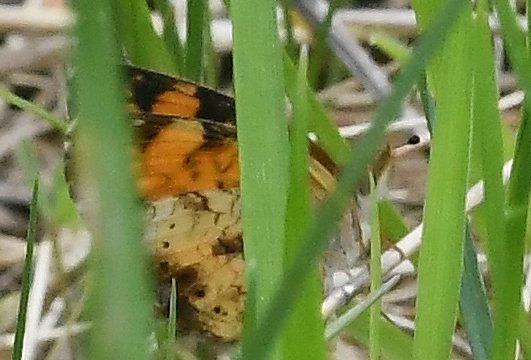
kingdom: Animalia
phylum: Arthropoda
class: Insecta
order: Lepidoptera
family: Nymphalidae
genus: Phyciodes
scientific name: Phyciodes tharos
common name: Pearl Crescent
